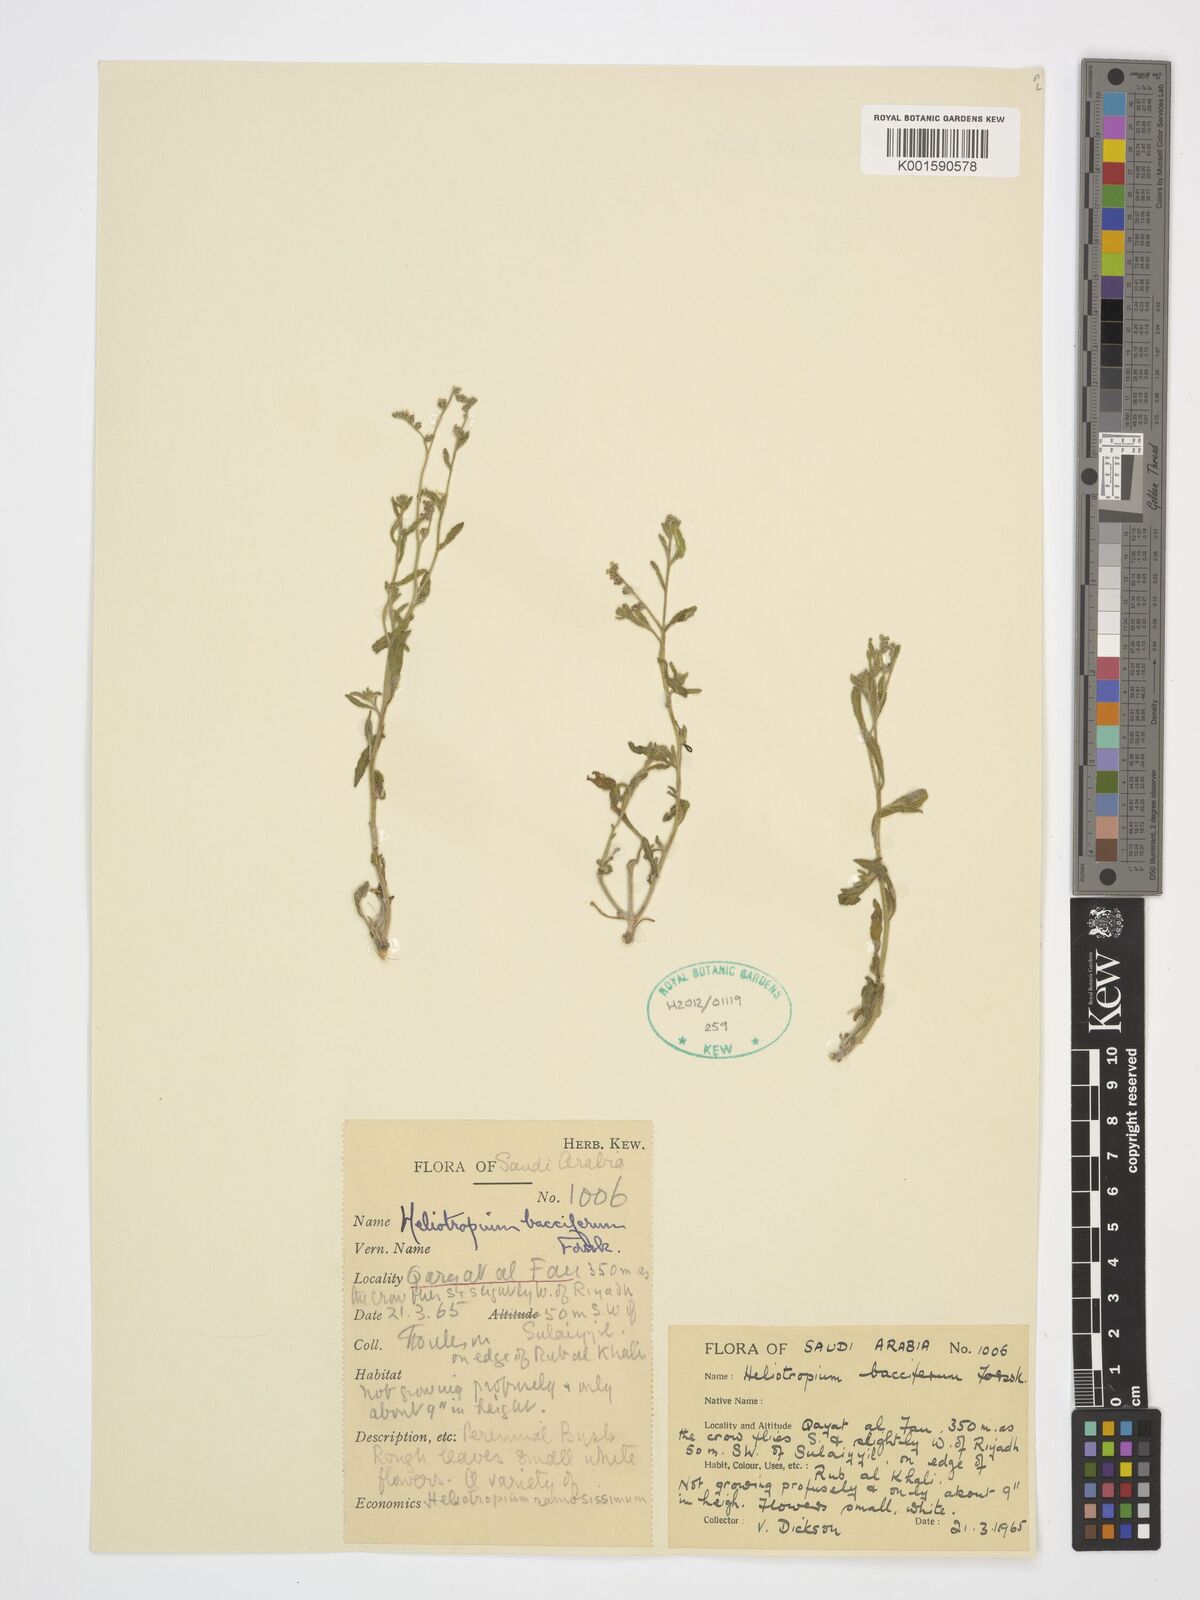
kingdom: Plantae
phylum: Tracheophyta
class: Magnoliopsida
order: Boraginales
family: Heliotropiaceae
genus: Heliotropium
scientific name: Heliotropium bacciferum
